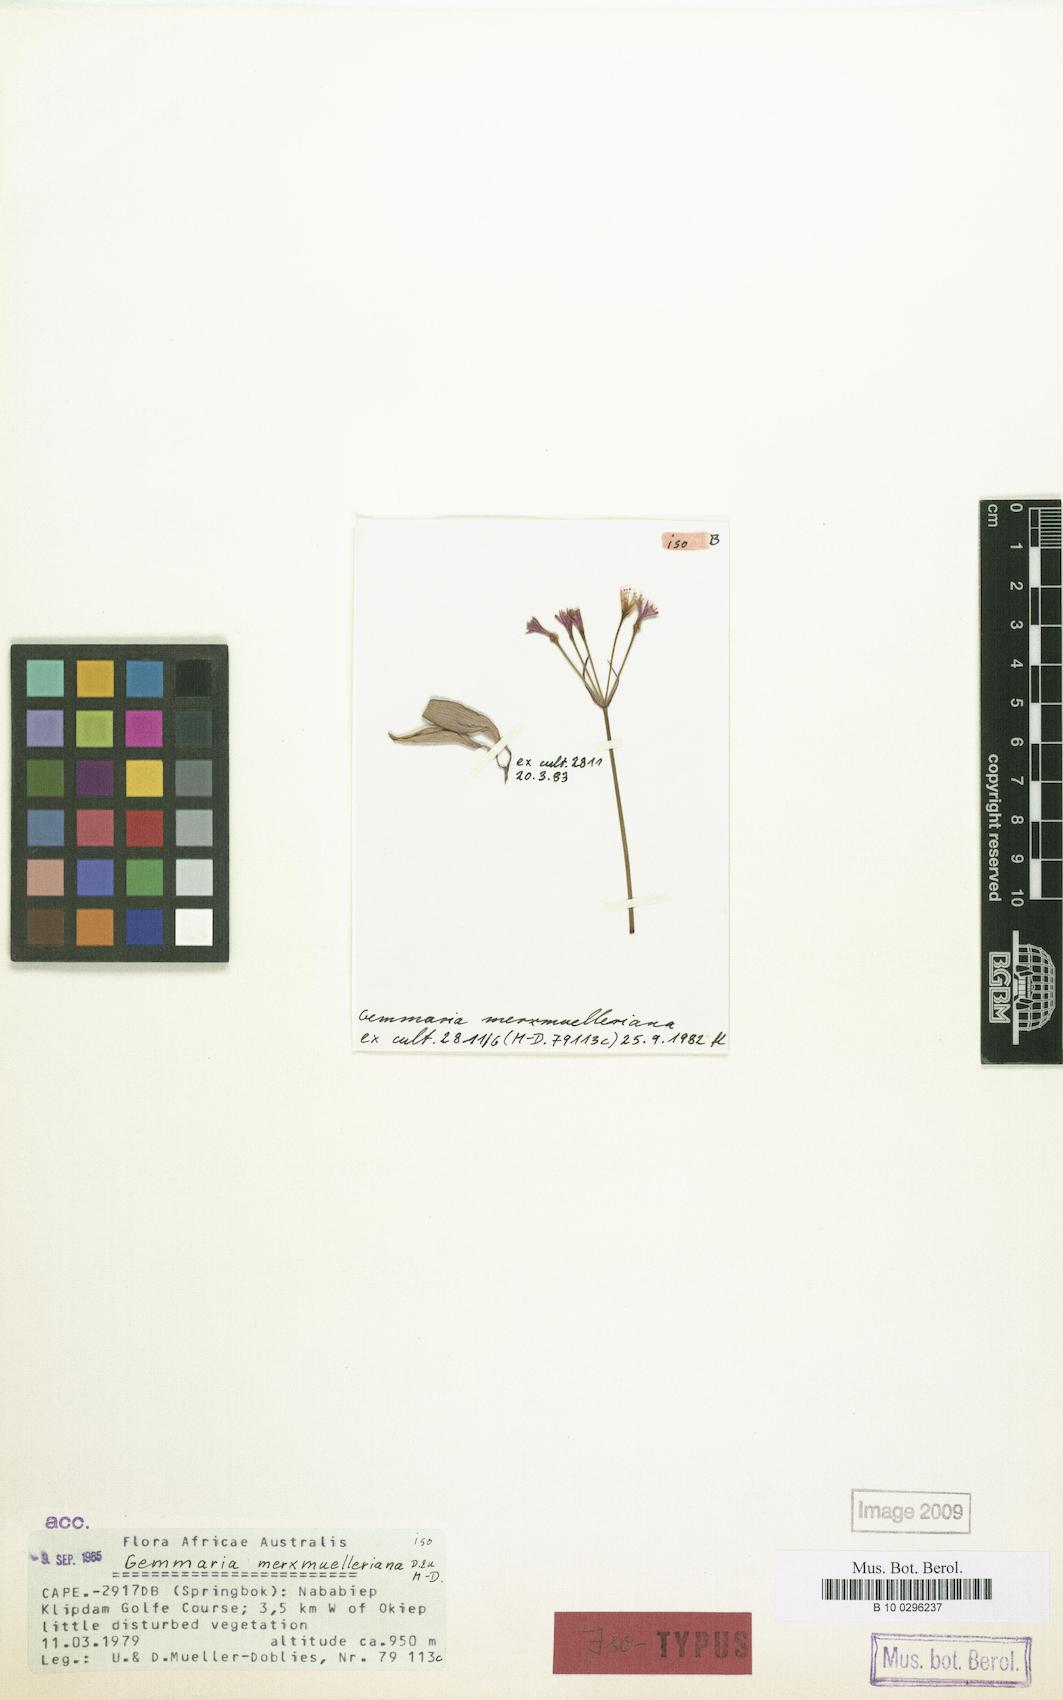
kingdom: Plantae
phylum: Tracheophyta
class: Liliopsida
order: Asparagales
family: Amaryllidaceae
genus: Strumaria
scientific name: Strumaria merxmuelleriana
